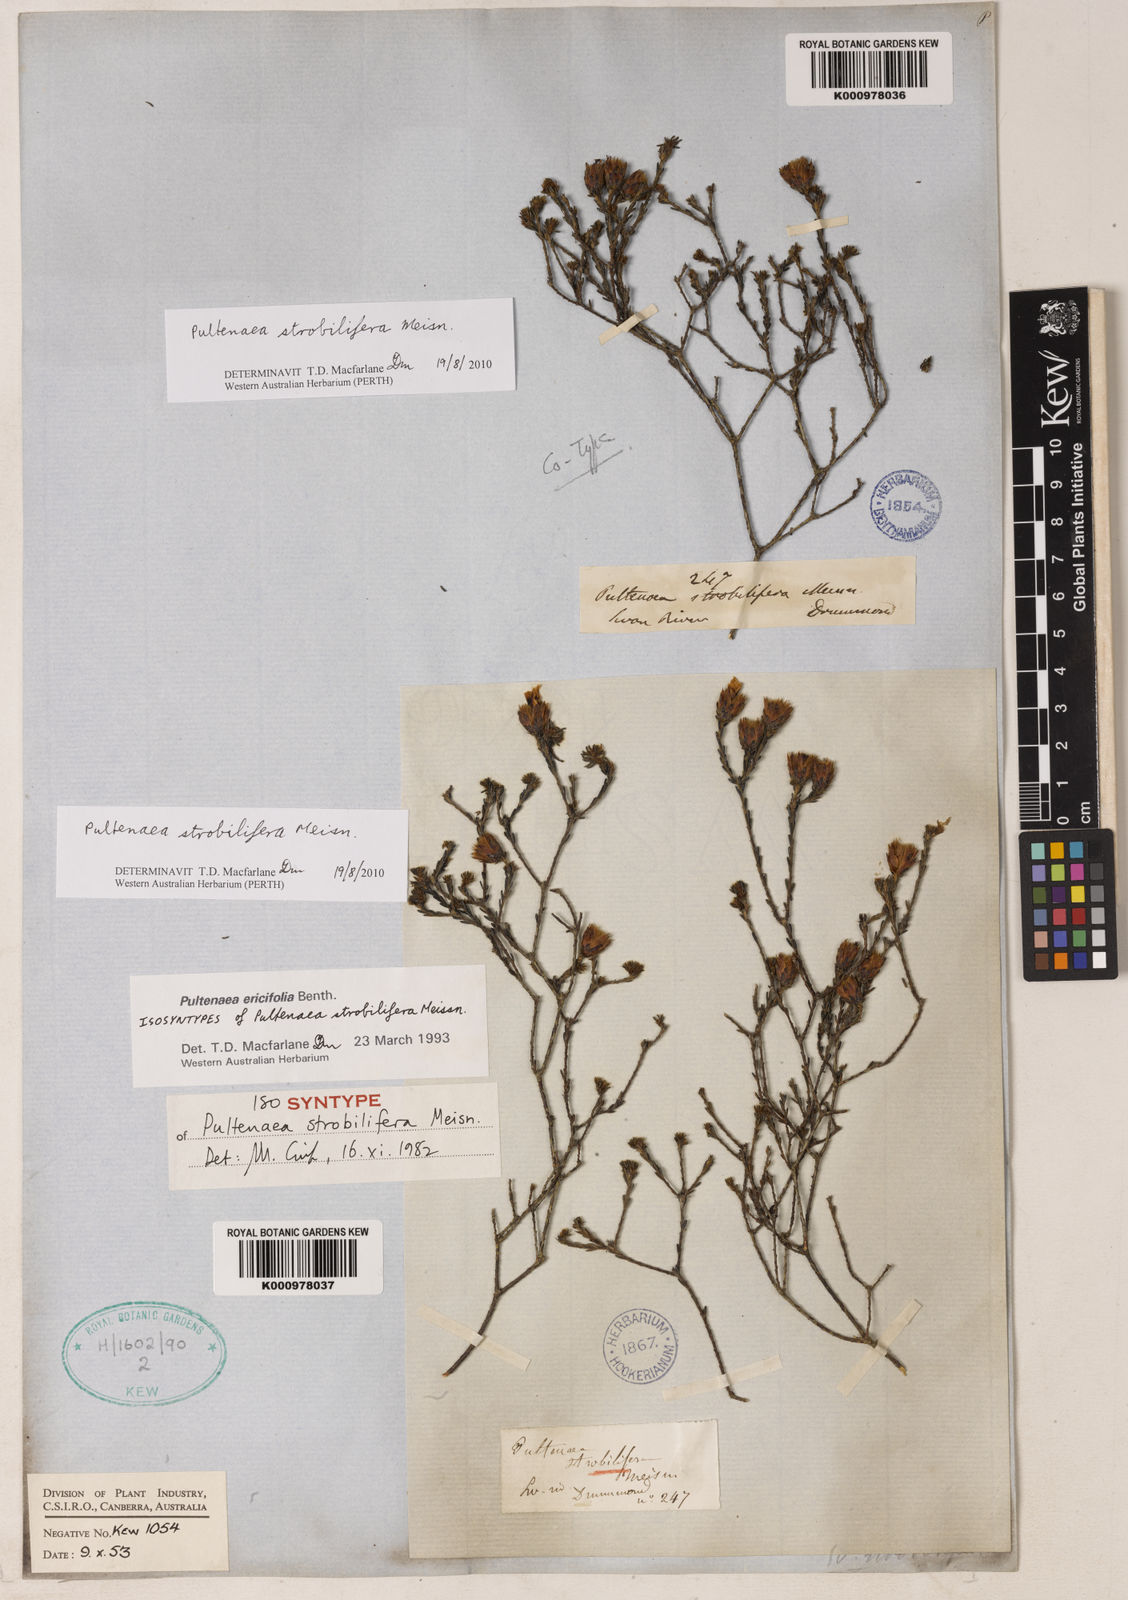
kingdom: Plantae
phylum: Tracheophyta
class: Magnoliopsida
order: Fabales
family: Fabaceae
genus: Pultenaea
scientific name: Pultenaea
